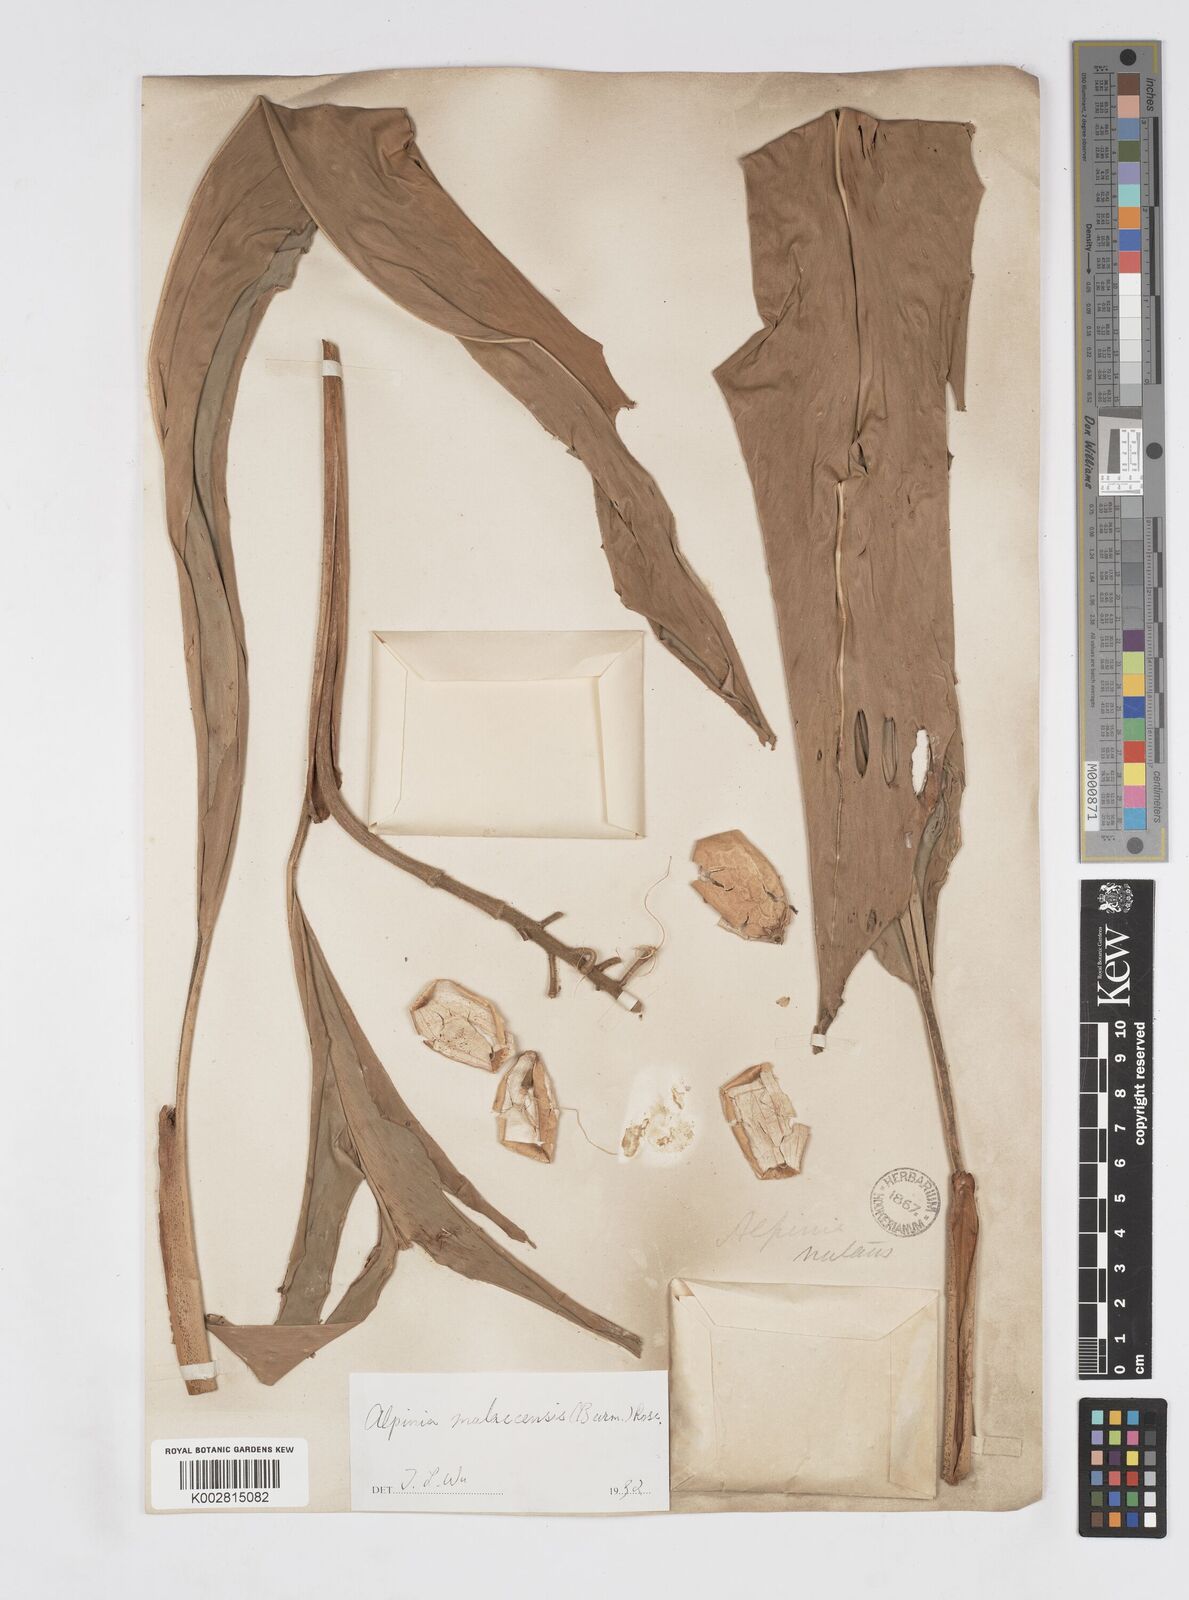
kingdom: Plantae
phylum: Tracheophyta
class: Liliopsida
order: Zingiberales
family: Zingiberaceae
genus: Alpinia
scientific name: Alpinia malaccensis
